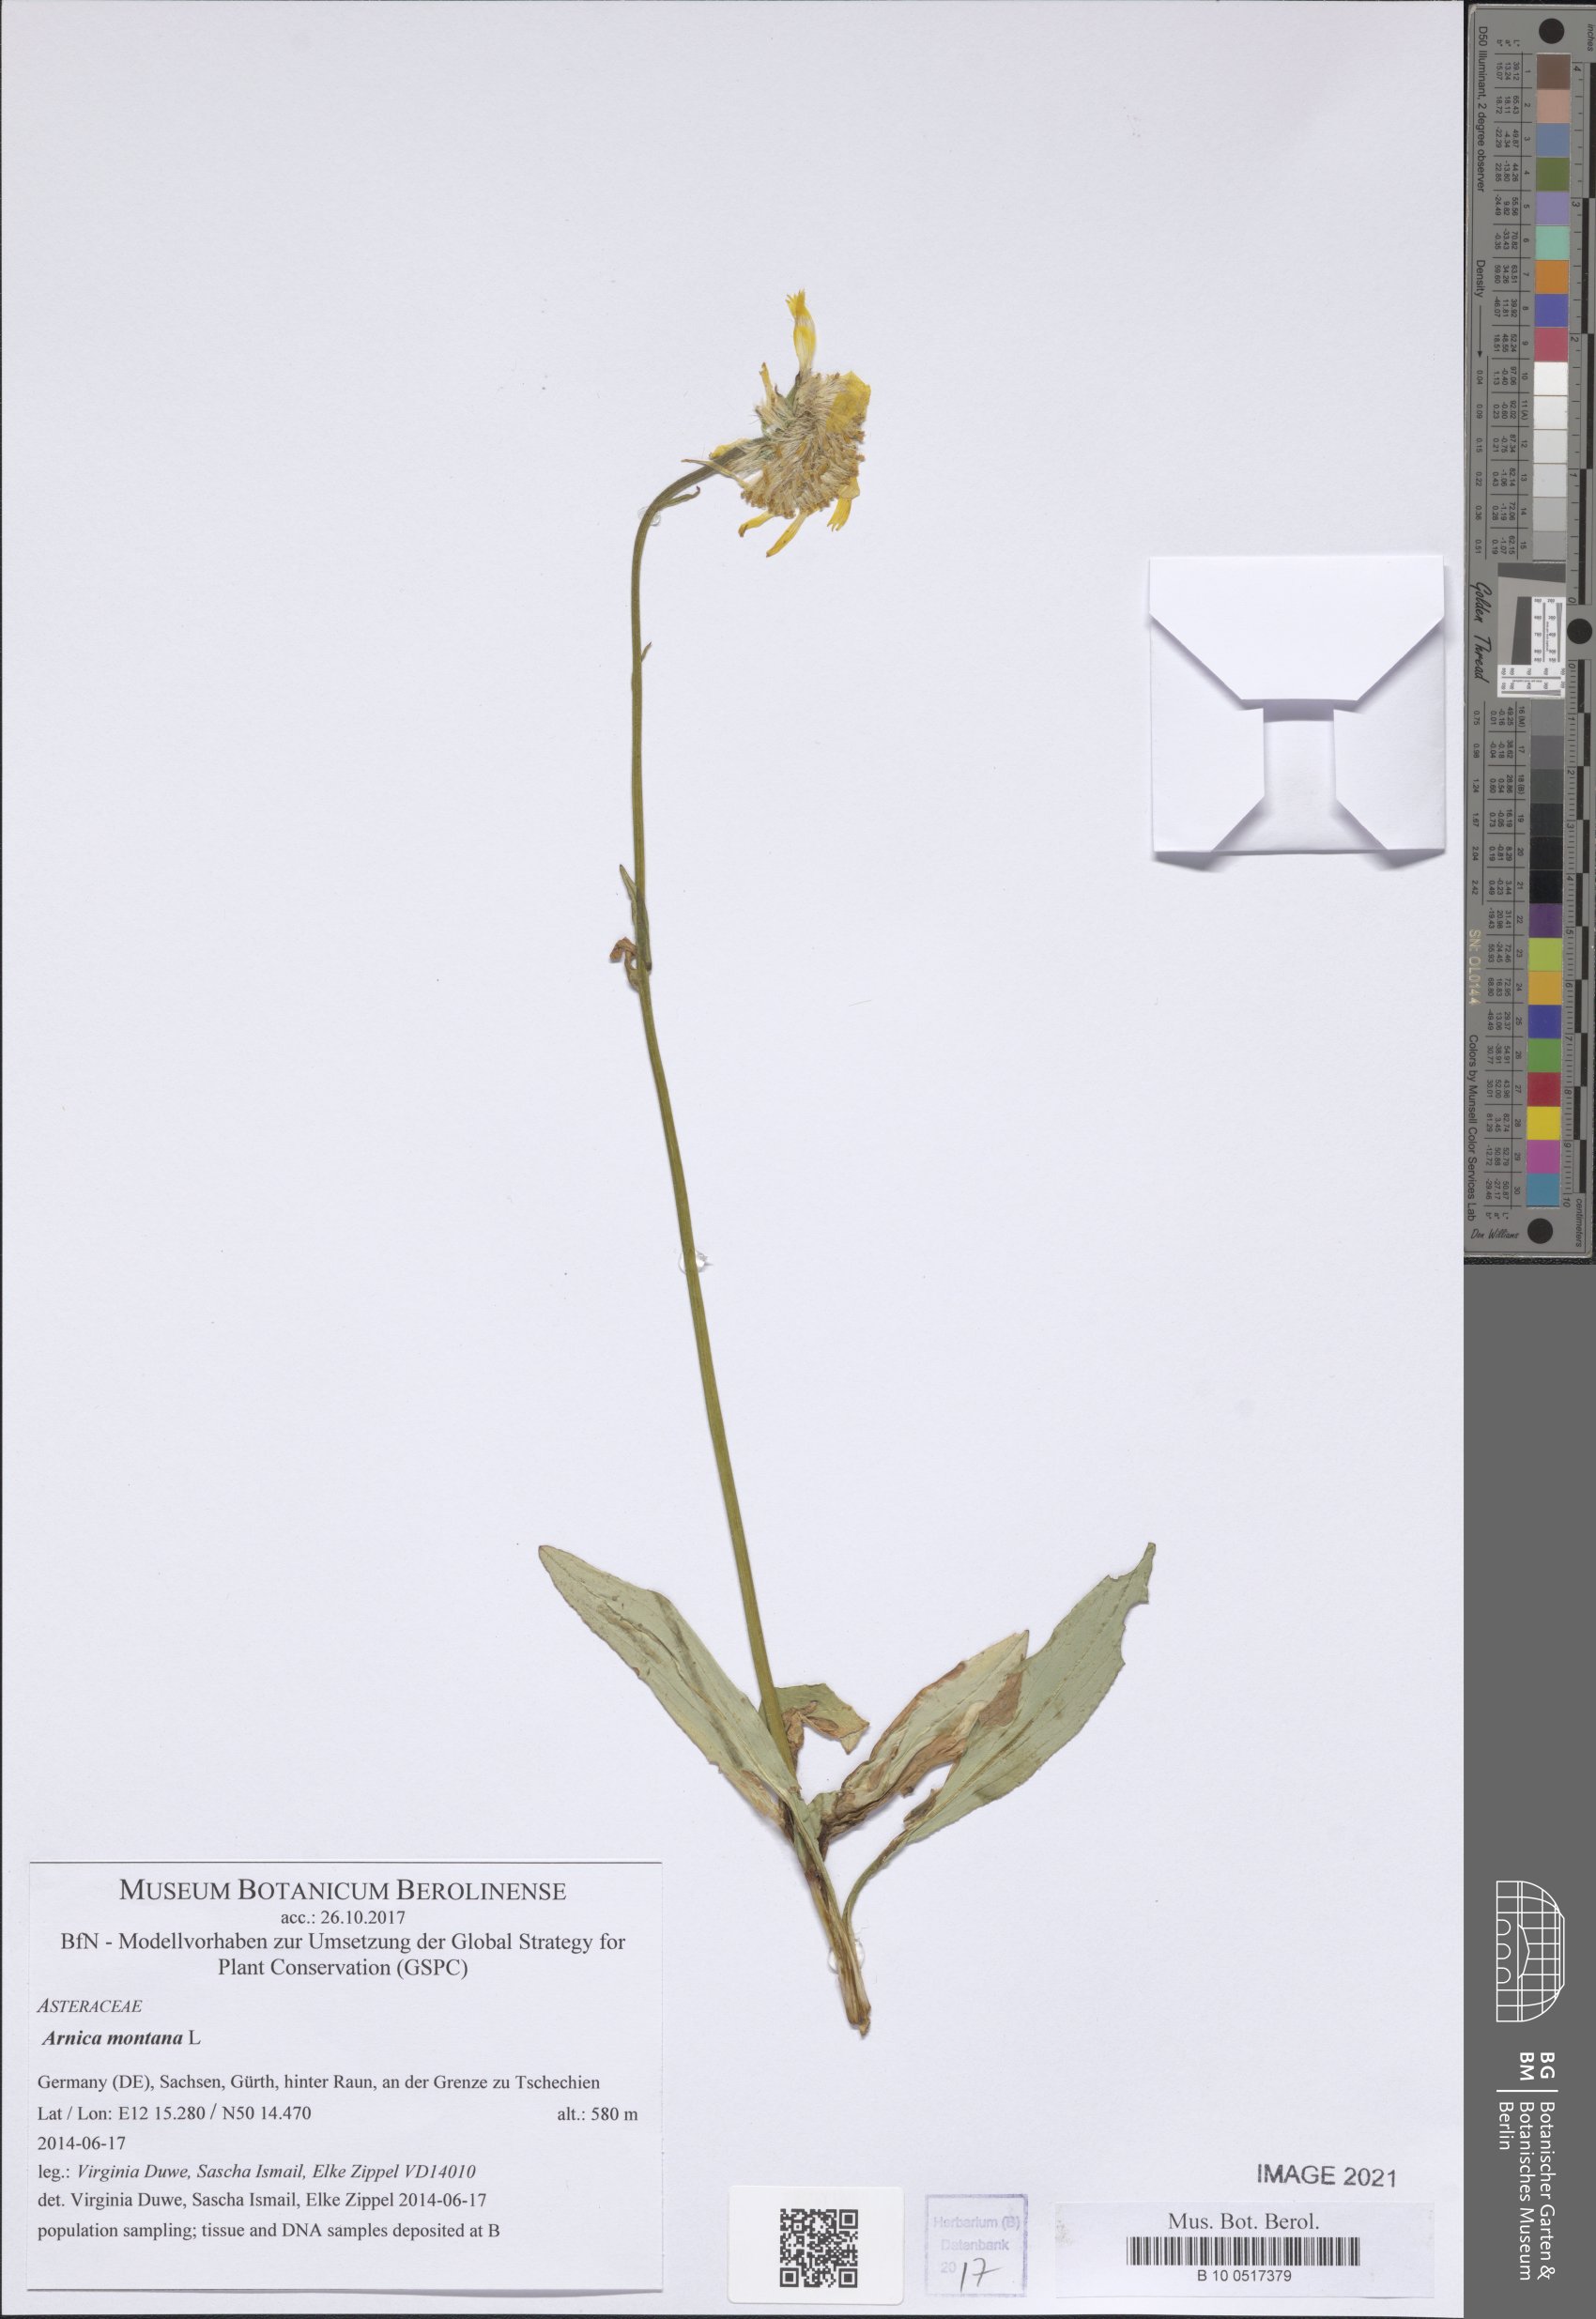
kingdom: Plantae
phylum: Tracheophyta
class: Magnoliopsida
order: Asterales
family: Asteraceae
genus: Arnica
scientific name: Arnica montana
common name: Leopard's bane
